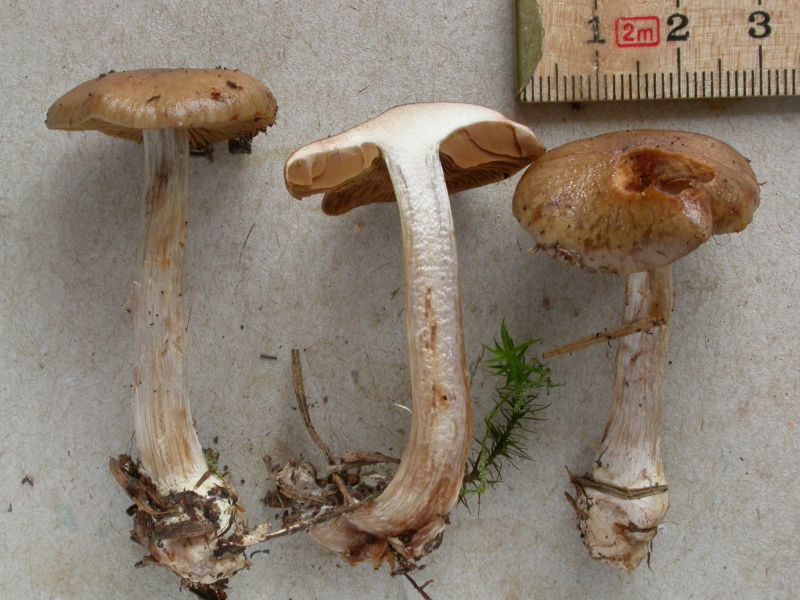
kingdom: Fungi
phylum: Basidiomycota
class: Agaricomycetes
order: Agaricales
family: Cortinariaceae
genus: Thaxterogaster
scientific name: Thaxterogaster scaurus
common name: sump-slørhat
